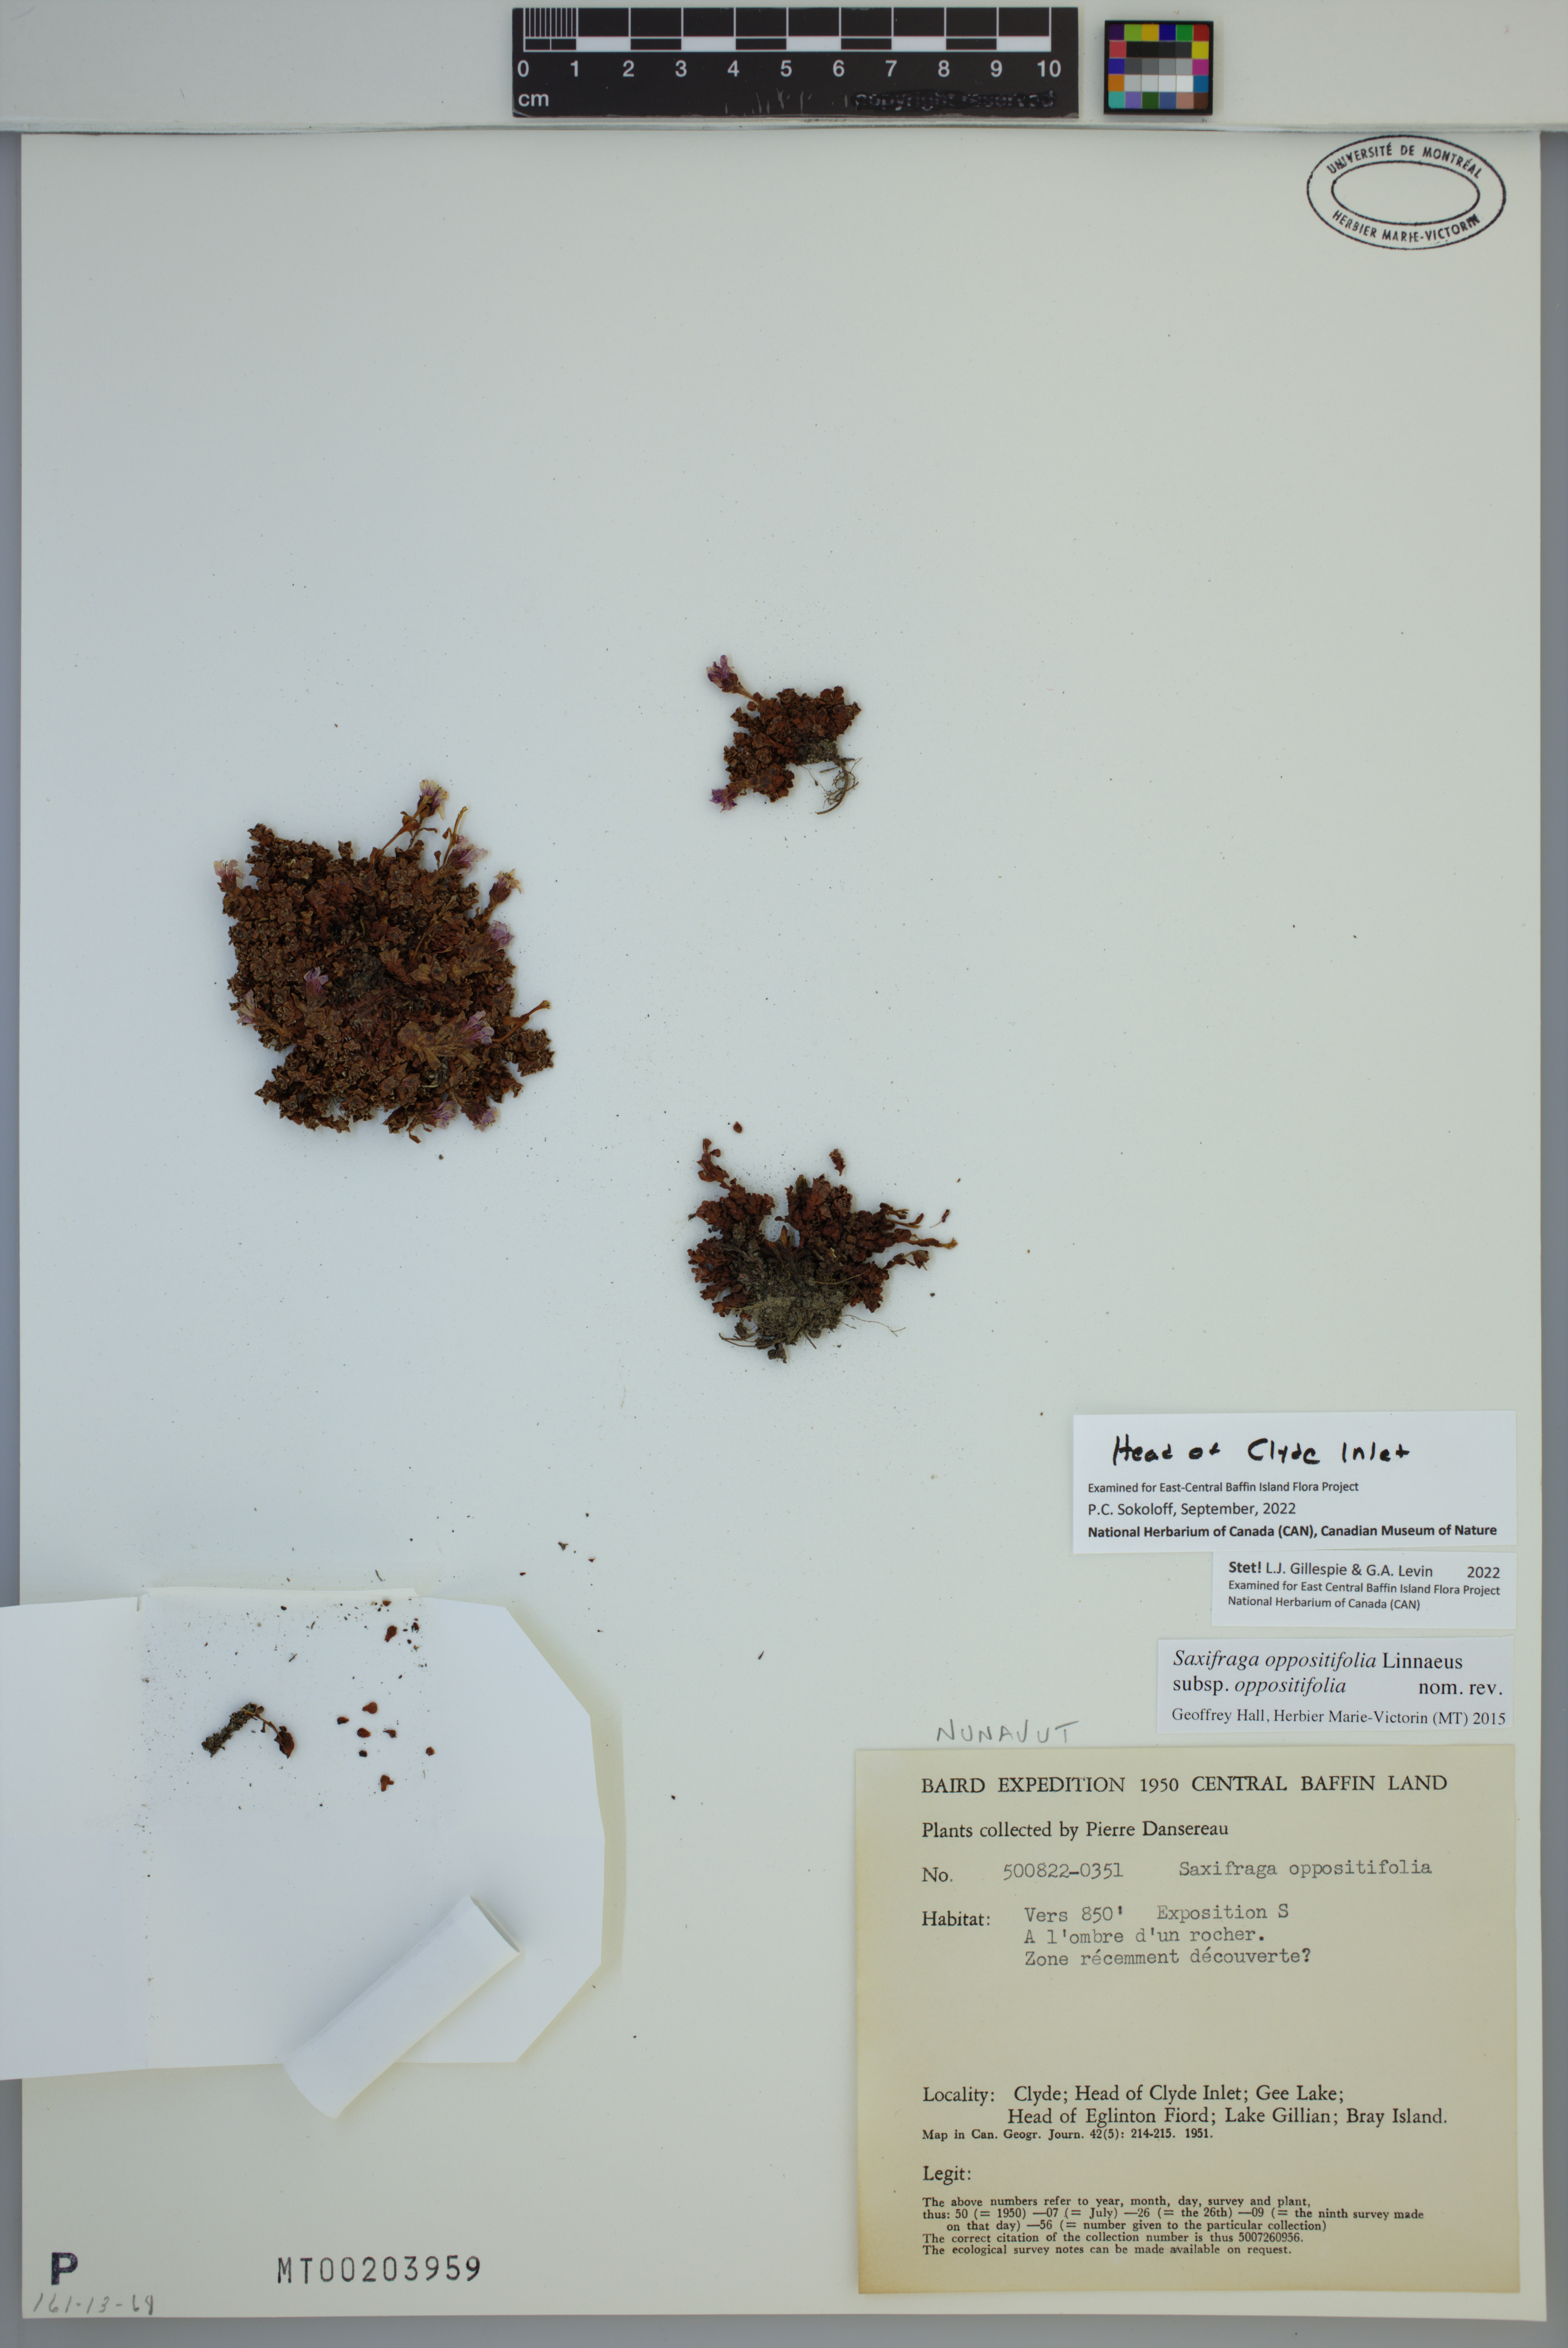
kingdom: Plantae
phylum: Tracheophyta
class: Magnoliopsida
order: Saxifragales
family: Saxifragaceae
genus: Saxifraga
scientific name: Saxifraga oppositifolia
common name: Purple saxifrage
